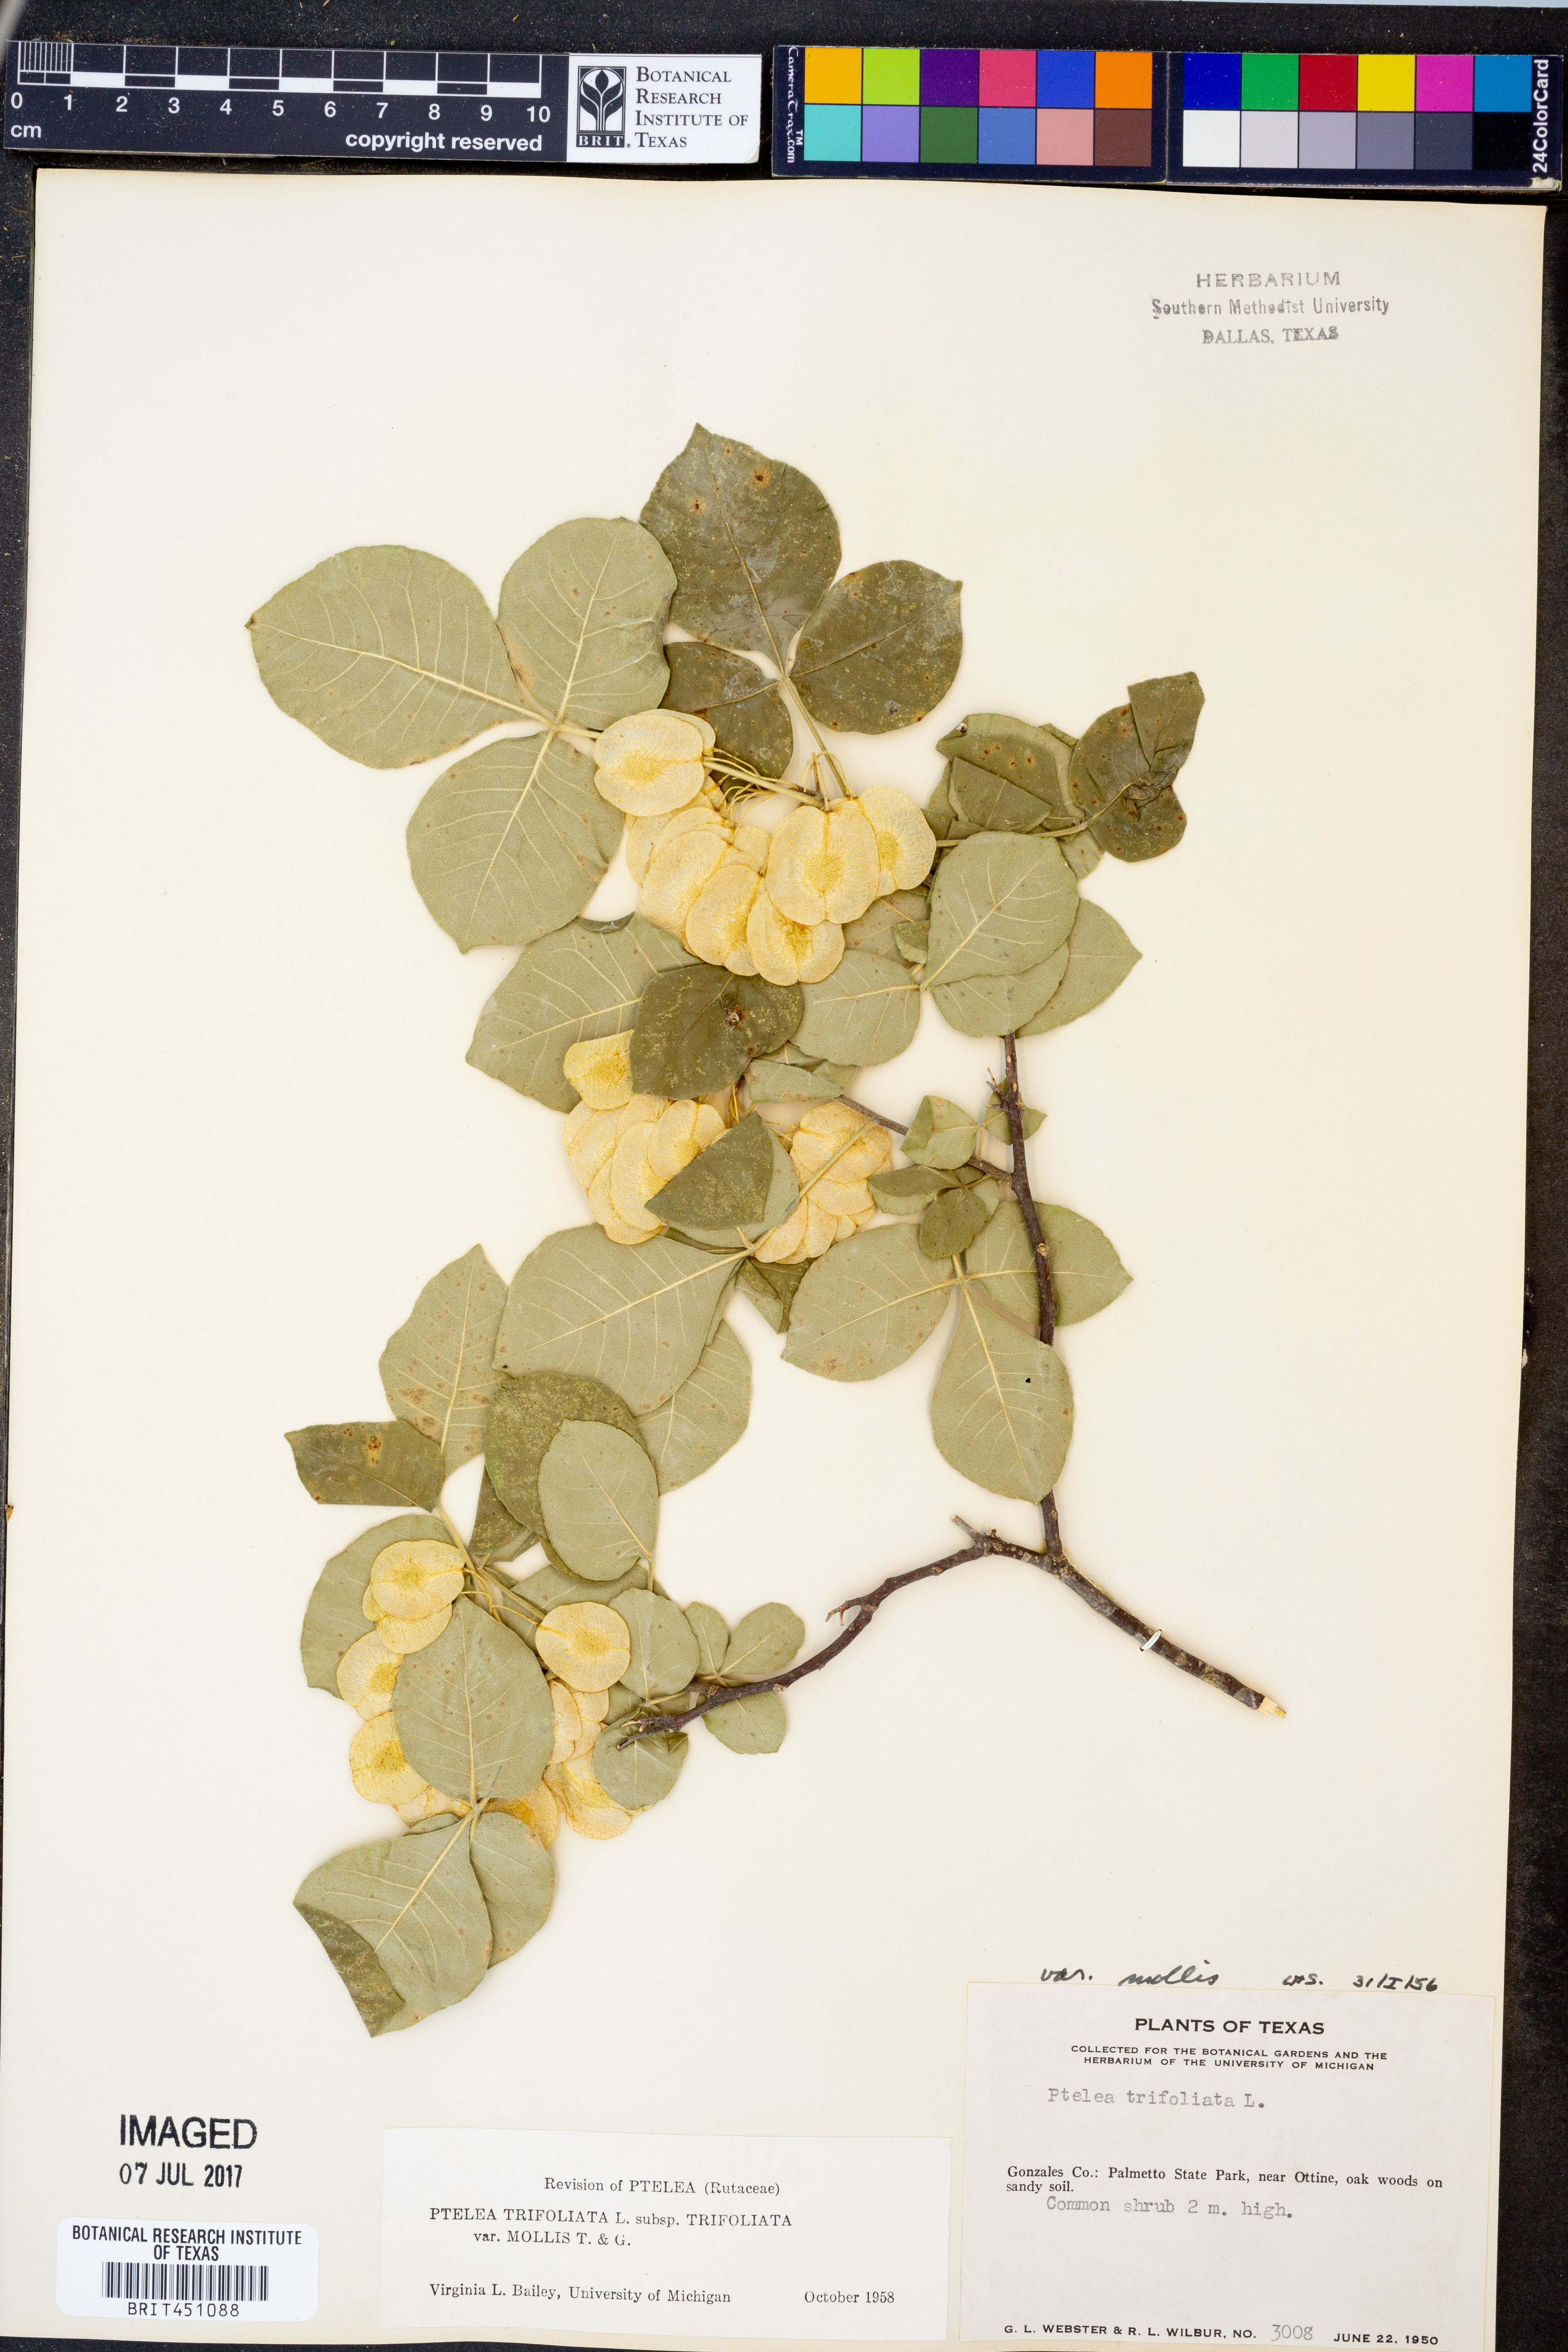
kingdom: Plantae
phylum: Tracheophyta
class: Magnoliopsida
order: Sapindales
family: Rutaceae
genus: Ptelea
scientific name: Ptelea trifoliata
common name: Common hop-tree
